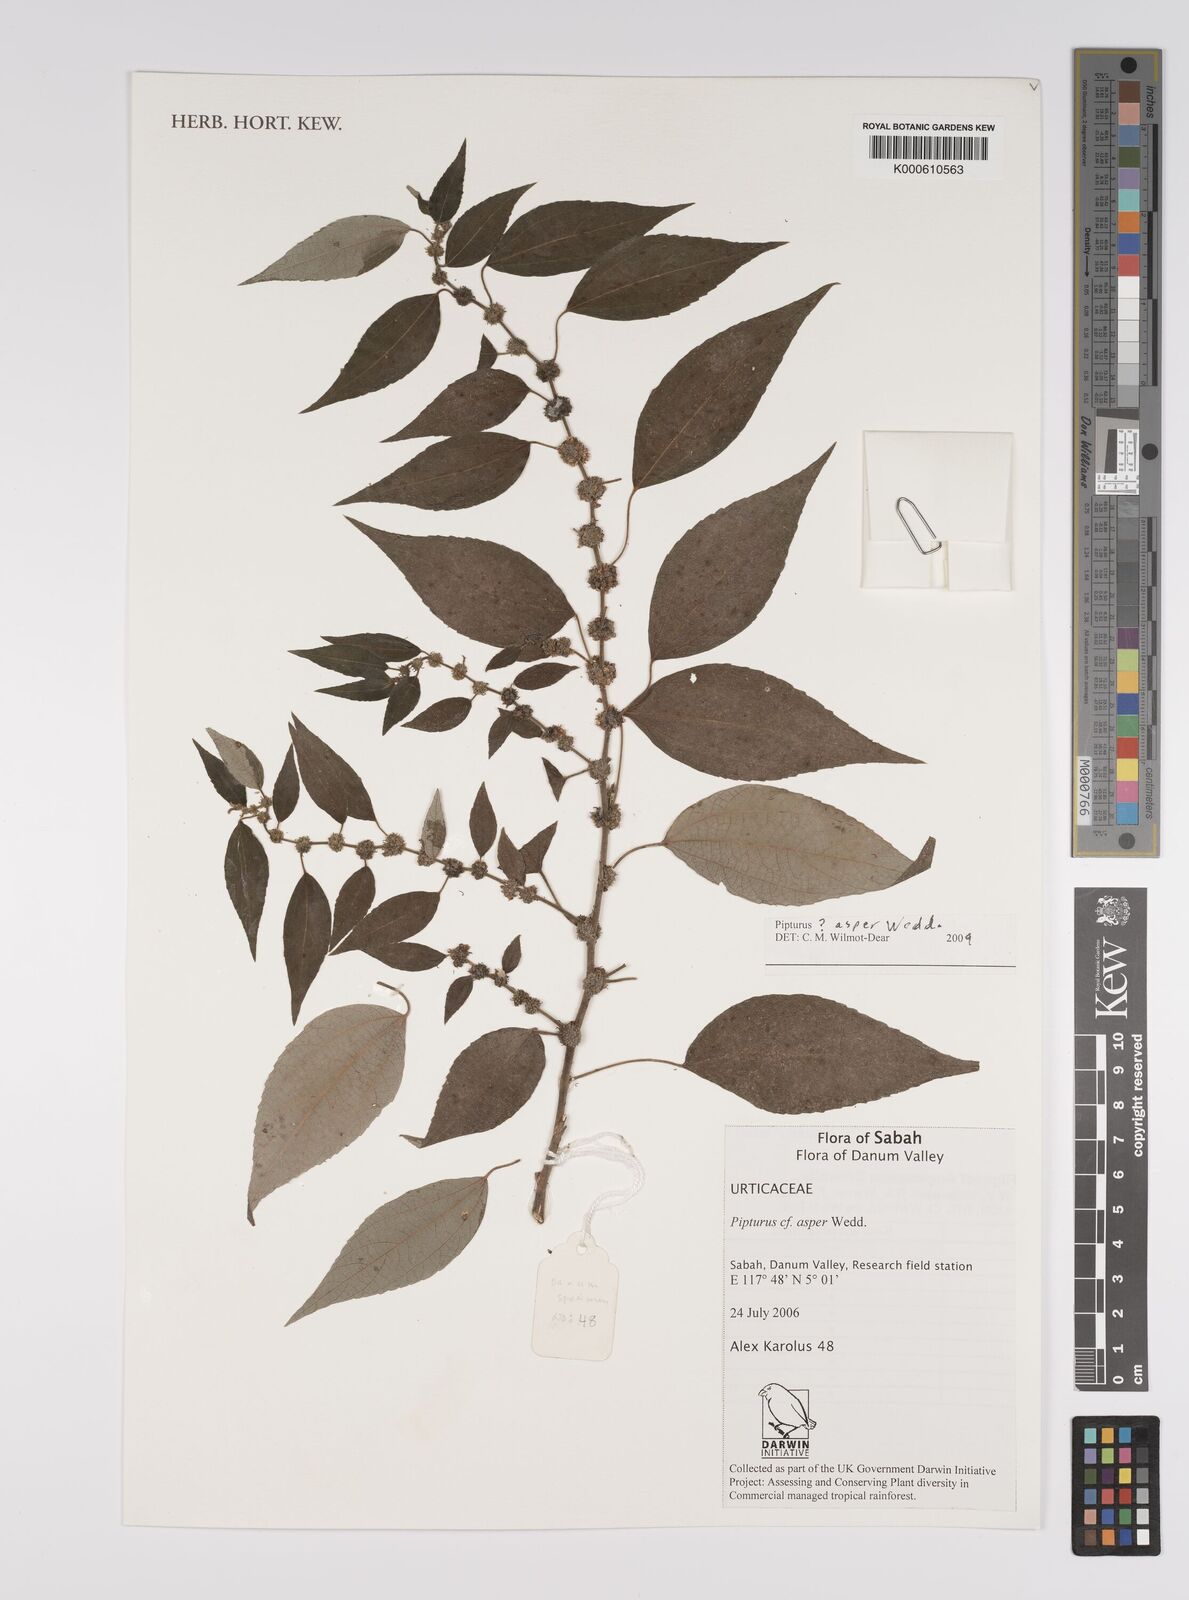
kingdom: Plantae
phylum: Tracheophyta
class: Magnoliopsida
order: Rosales
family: Urticaceae
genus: Pipturus
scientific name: Pipturus
